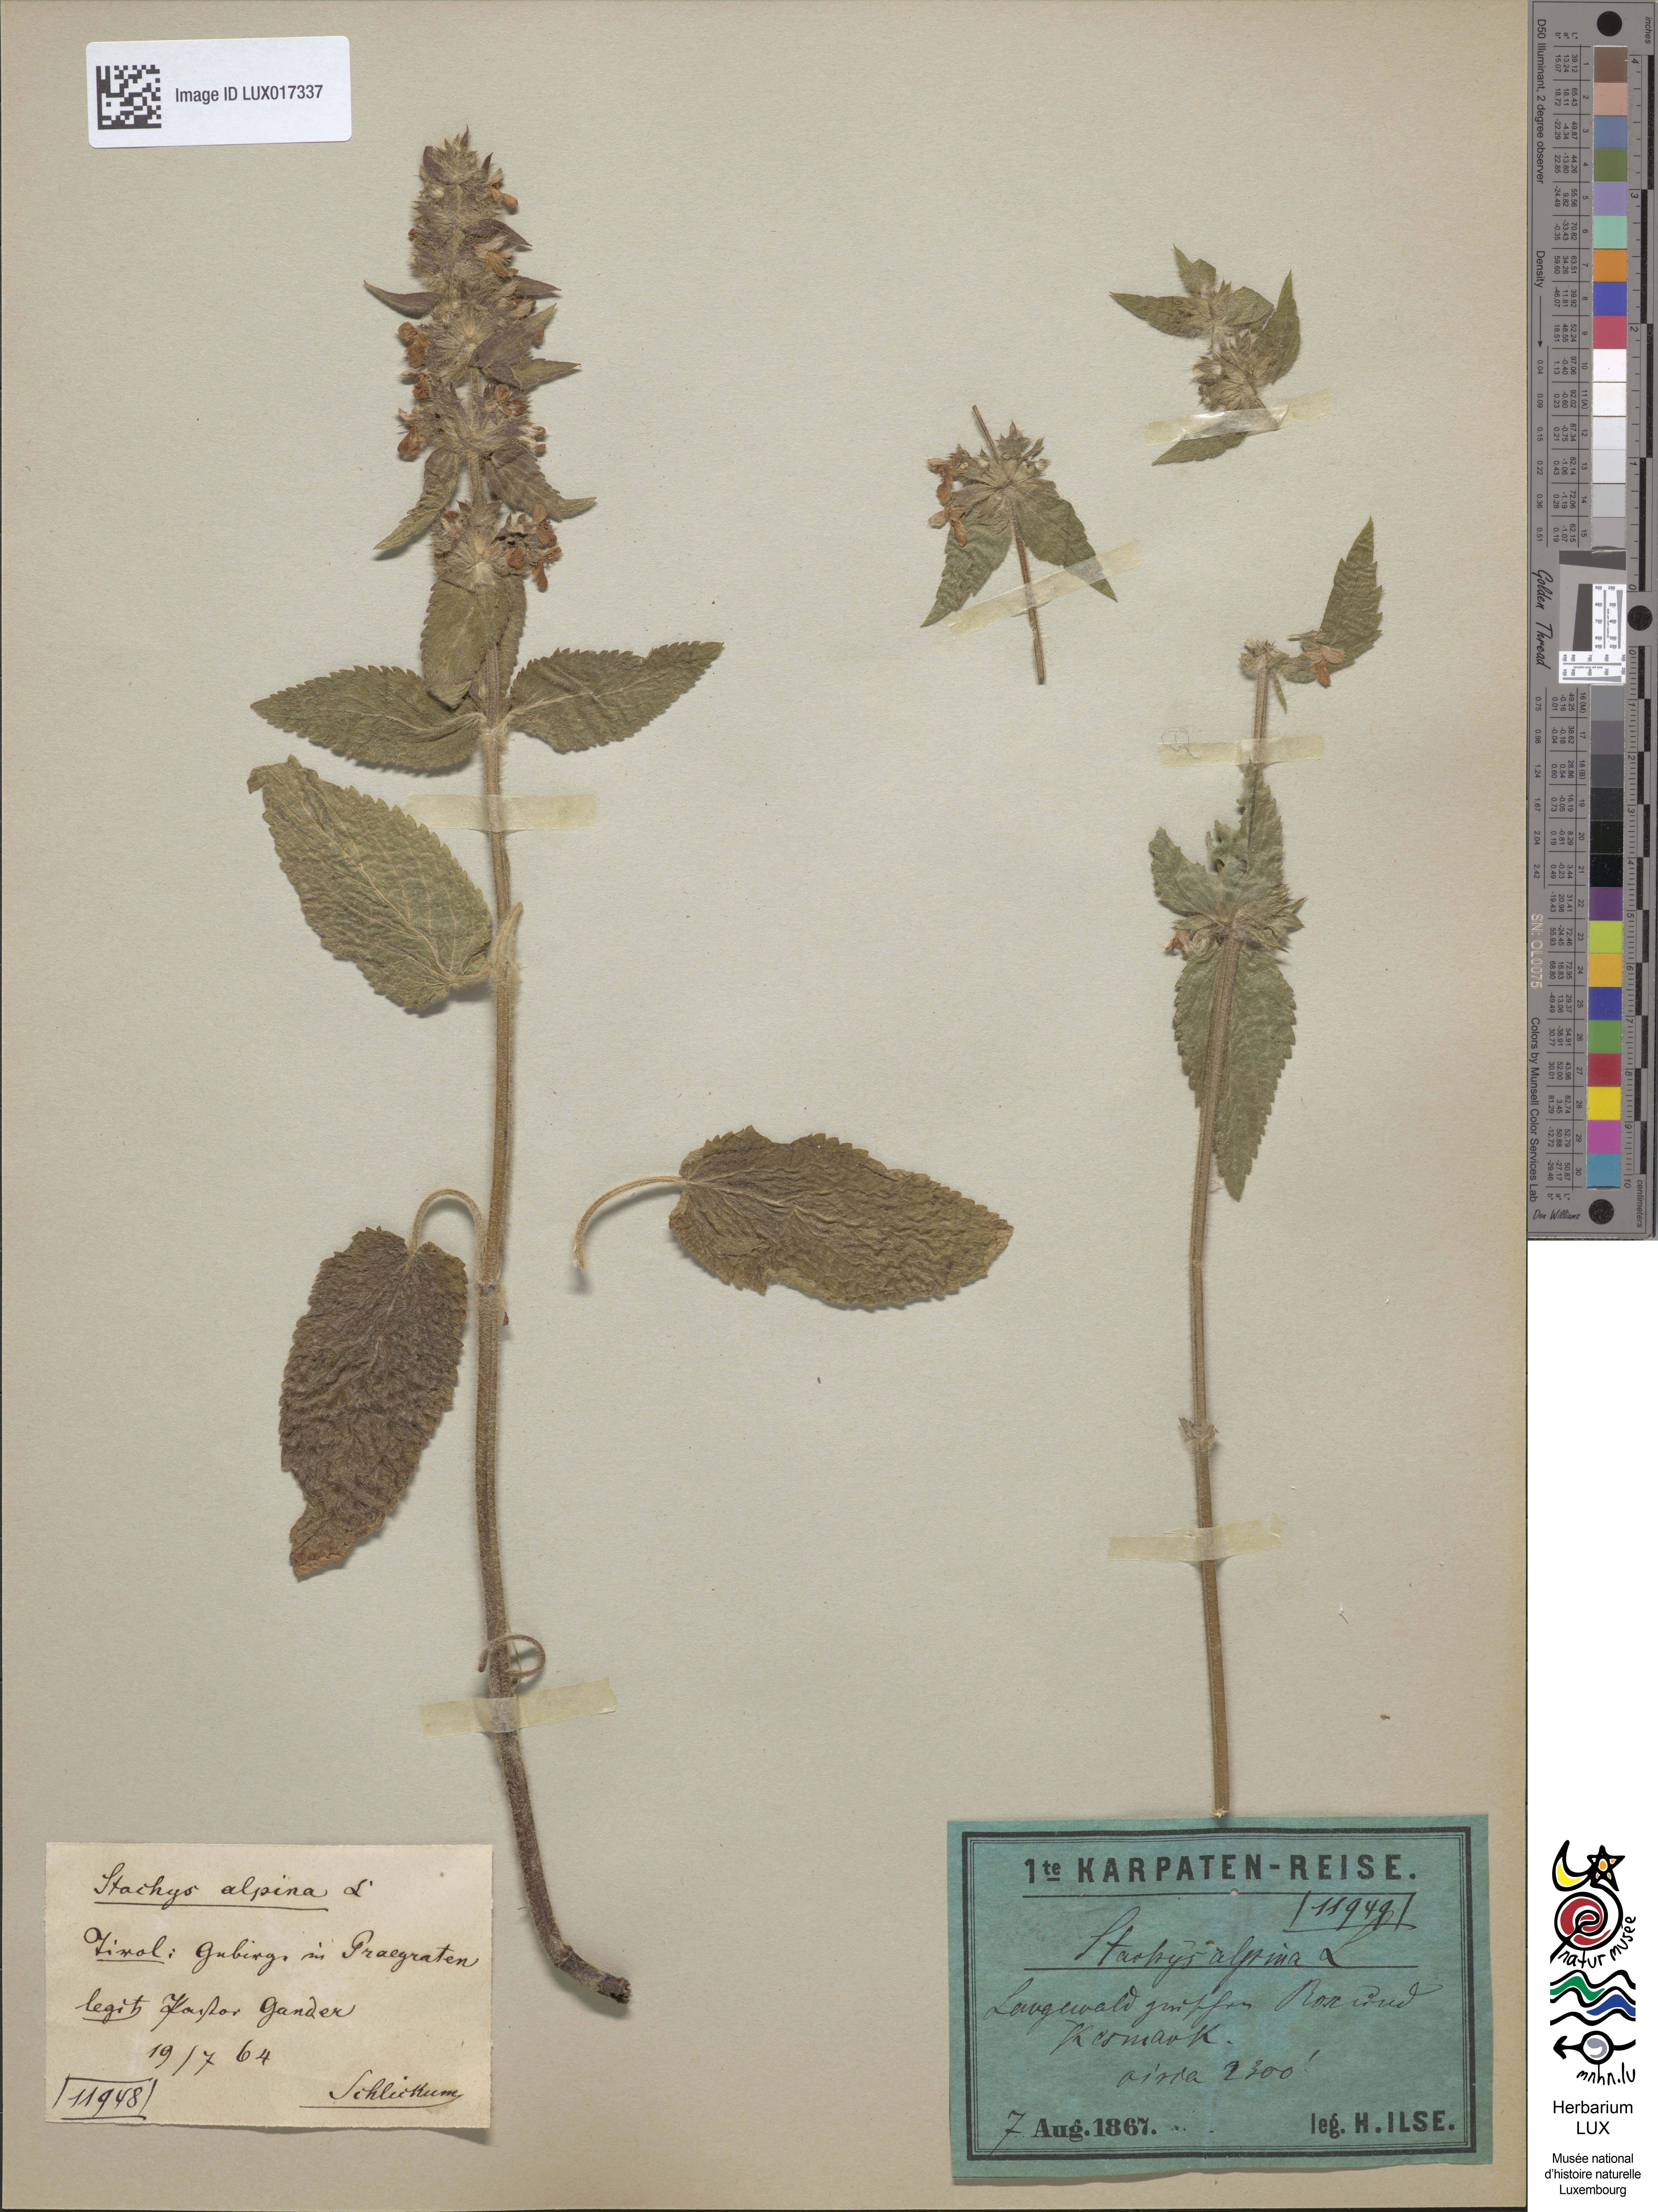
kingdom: Plantae
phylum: Tracheophyta
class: Magnoliopsida
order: Lamiales
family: Lamiaceae
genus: Stachys
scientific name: Stachys alpina
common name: Limestone woundwort
